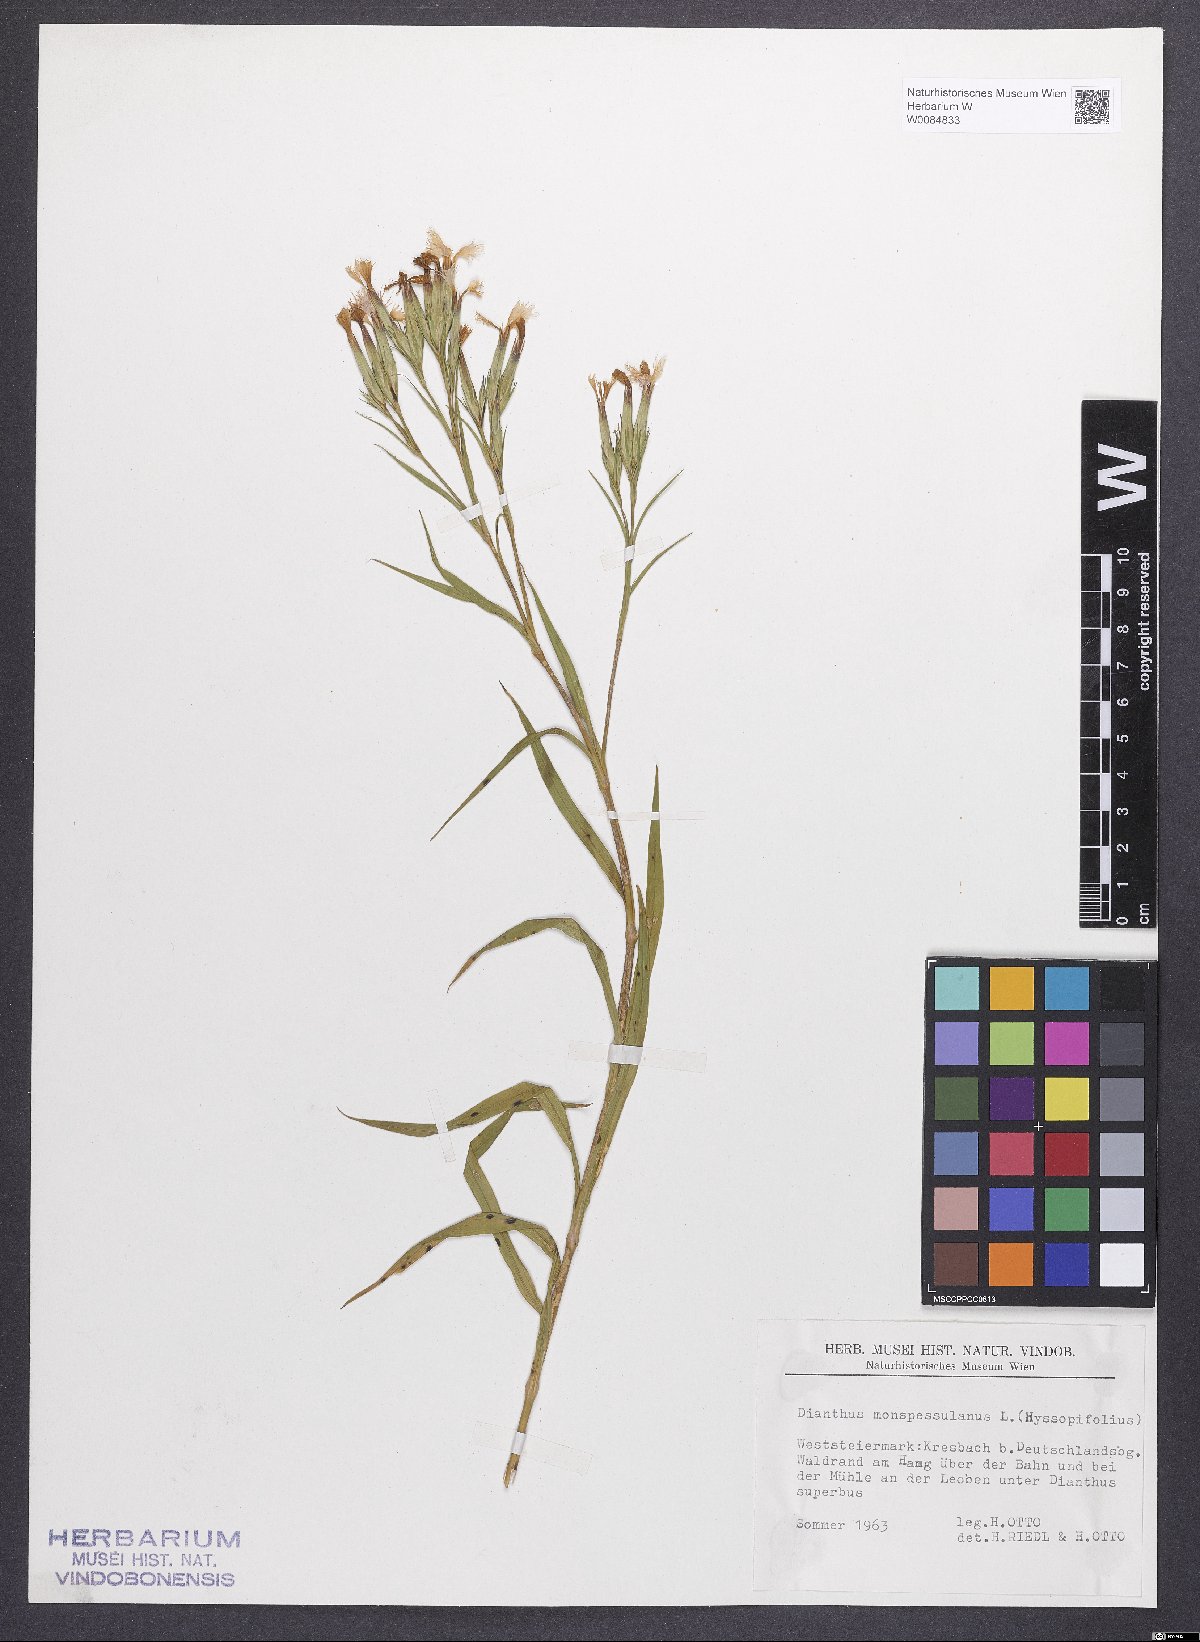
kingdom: Plantae
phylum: Tracheophyta
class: Magnoliopsida
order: Caryophyllales
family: Caryophyllaceae
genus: Dianthus
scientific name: Dianthus hyssopifolius
